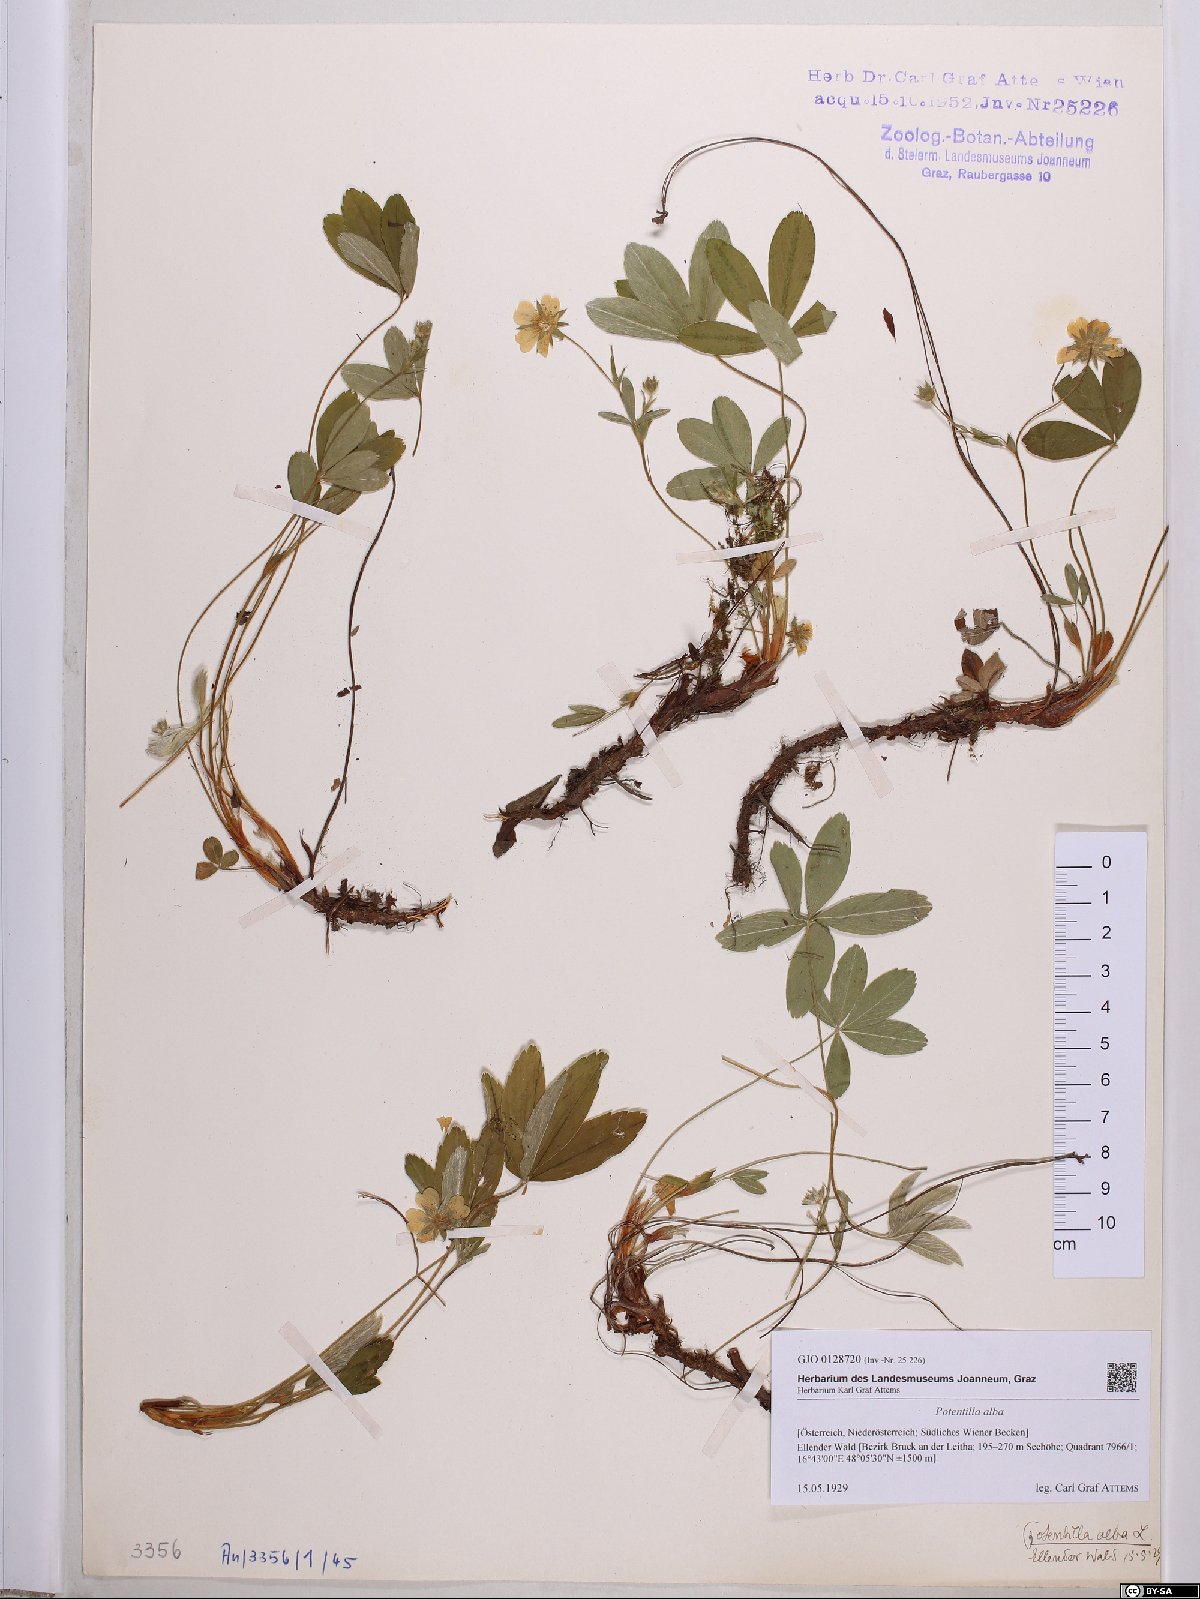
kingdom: Plantae
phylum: Tracheophyta
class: Magnoliopsida
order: Rosales
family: Rosaceae
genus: Potentilla
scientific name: Potentilla alba
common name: White cinquefoil
